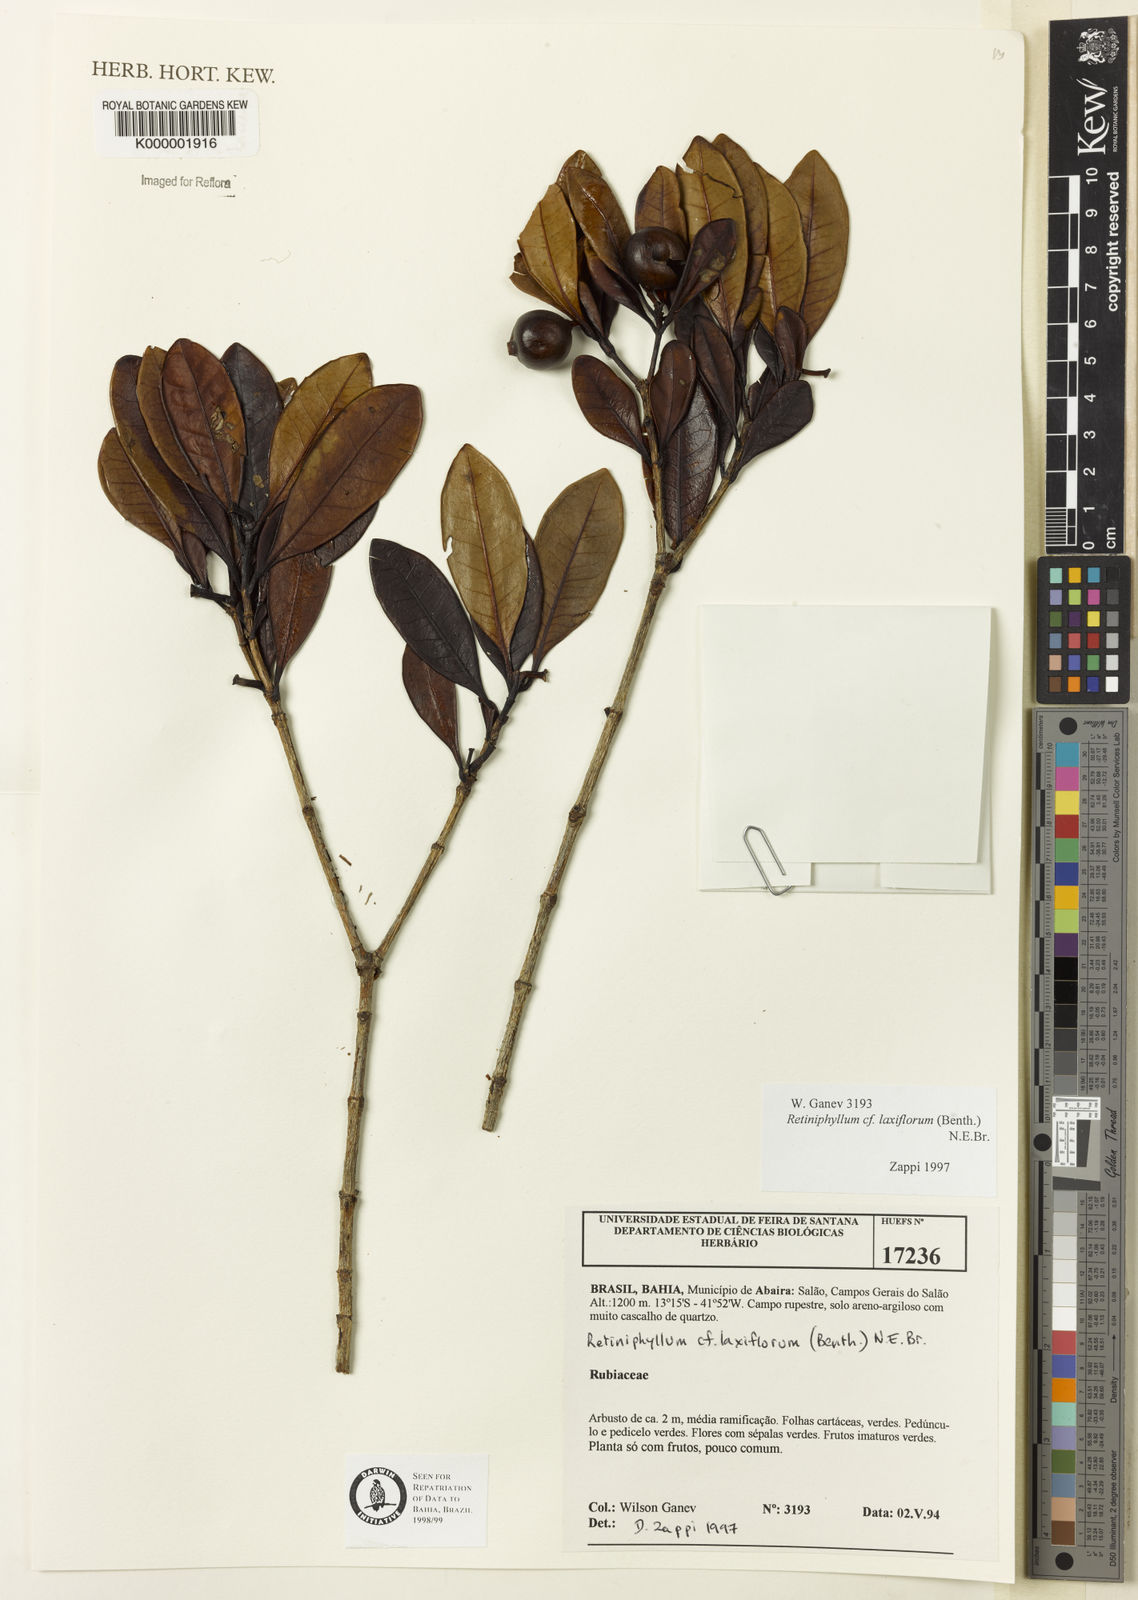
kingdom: Plantae
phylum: Tracheophyta
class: Magnoliopsida
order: Gentianales
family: Rubiaceae
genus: Retiniphyllum
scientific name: Retiniphyllum laxiflorum
